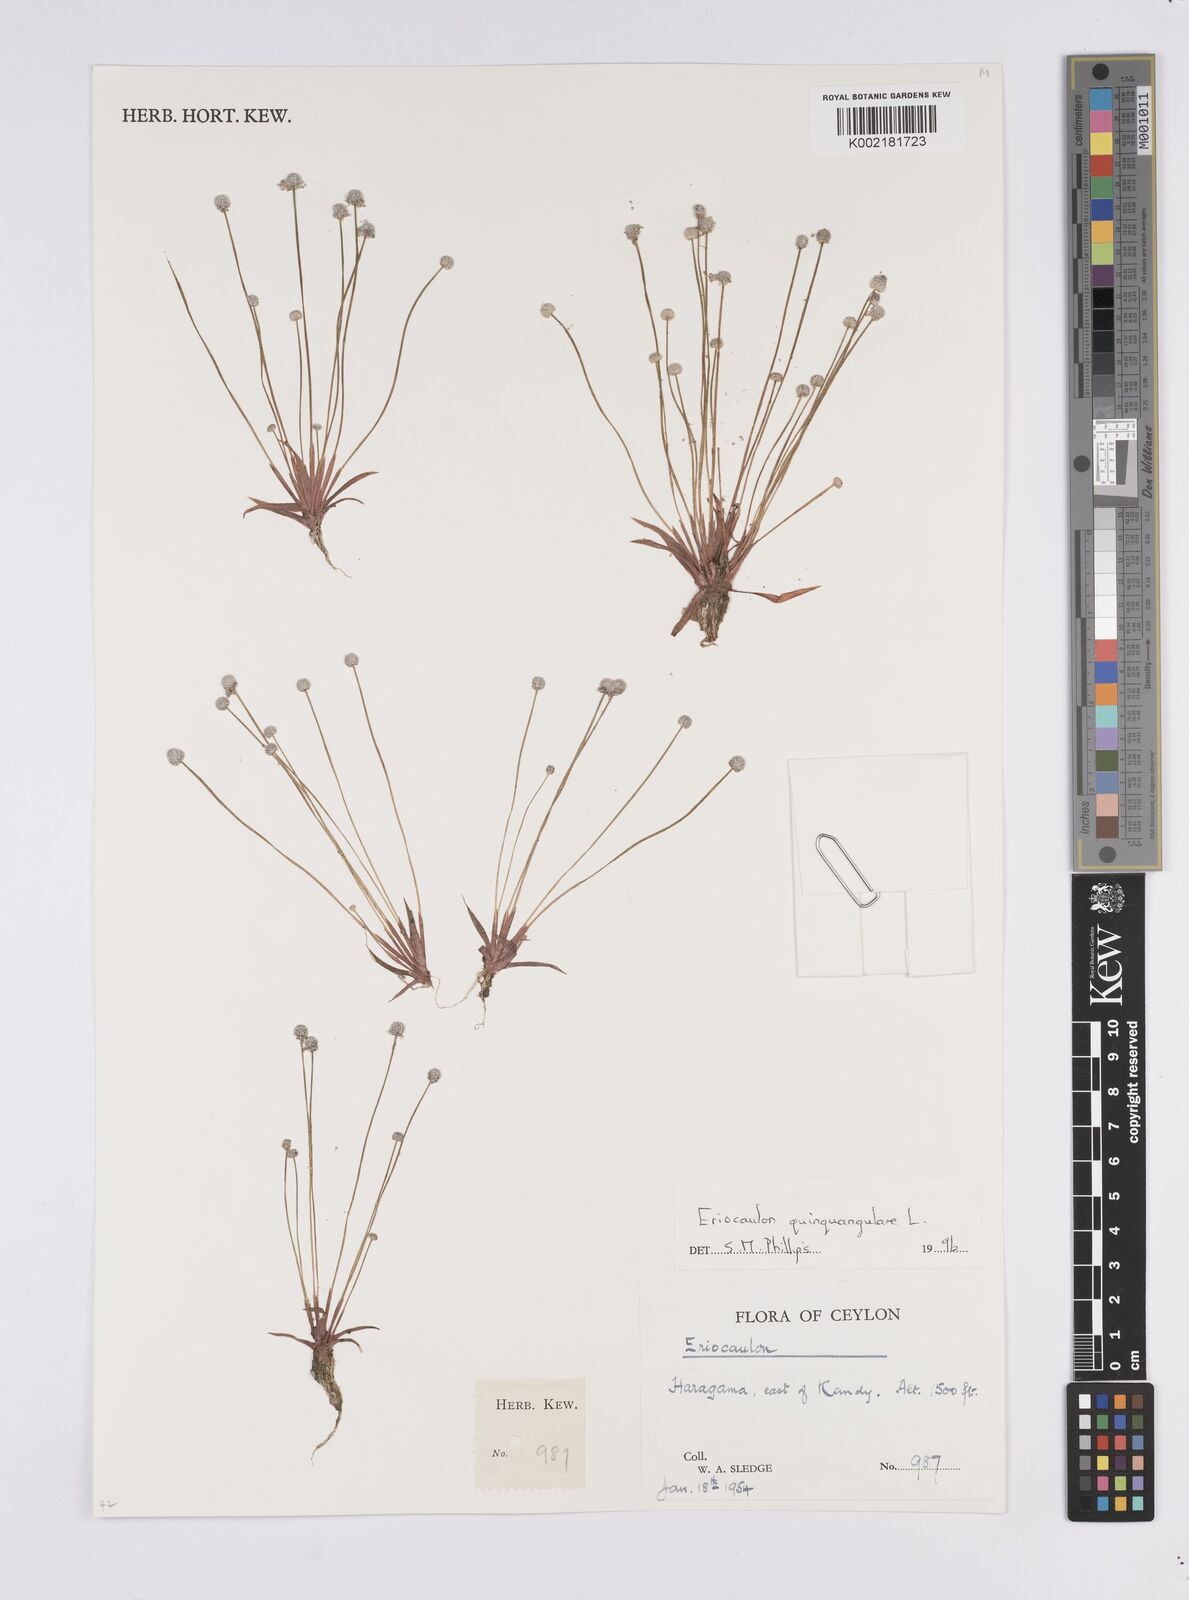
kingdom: Plantae
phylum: Tracheophyta
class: Liliopsida
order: Poales
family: Eriocaulaceae
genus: Eriocaulon
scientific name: Eriocaulon quinquangulare
